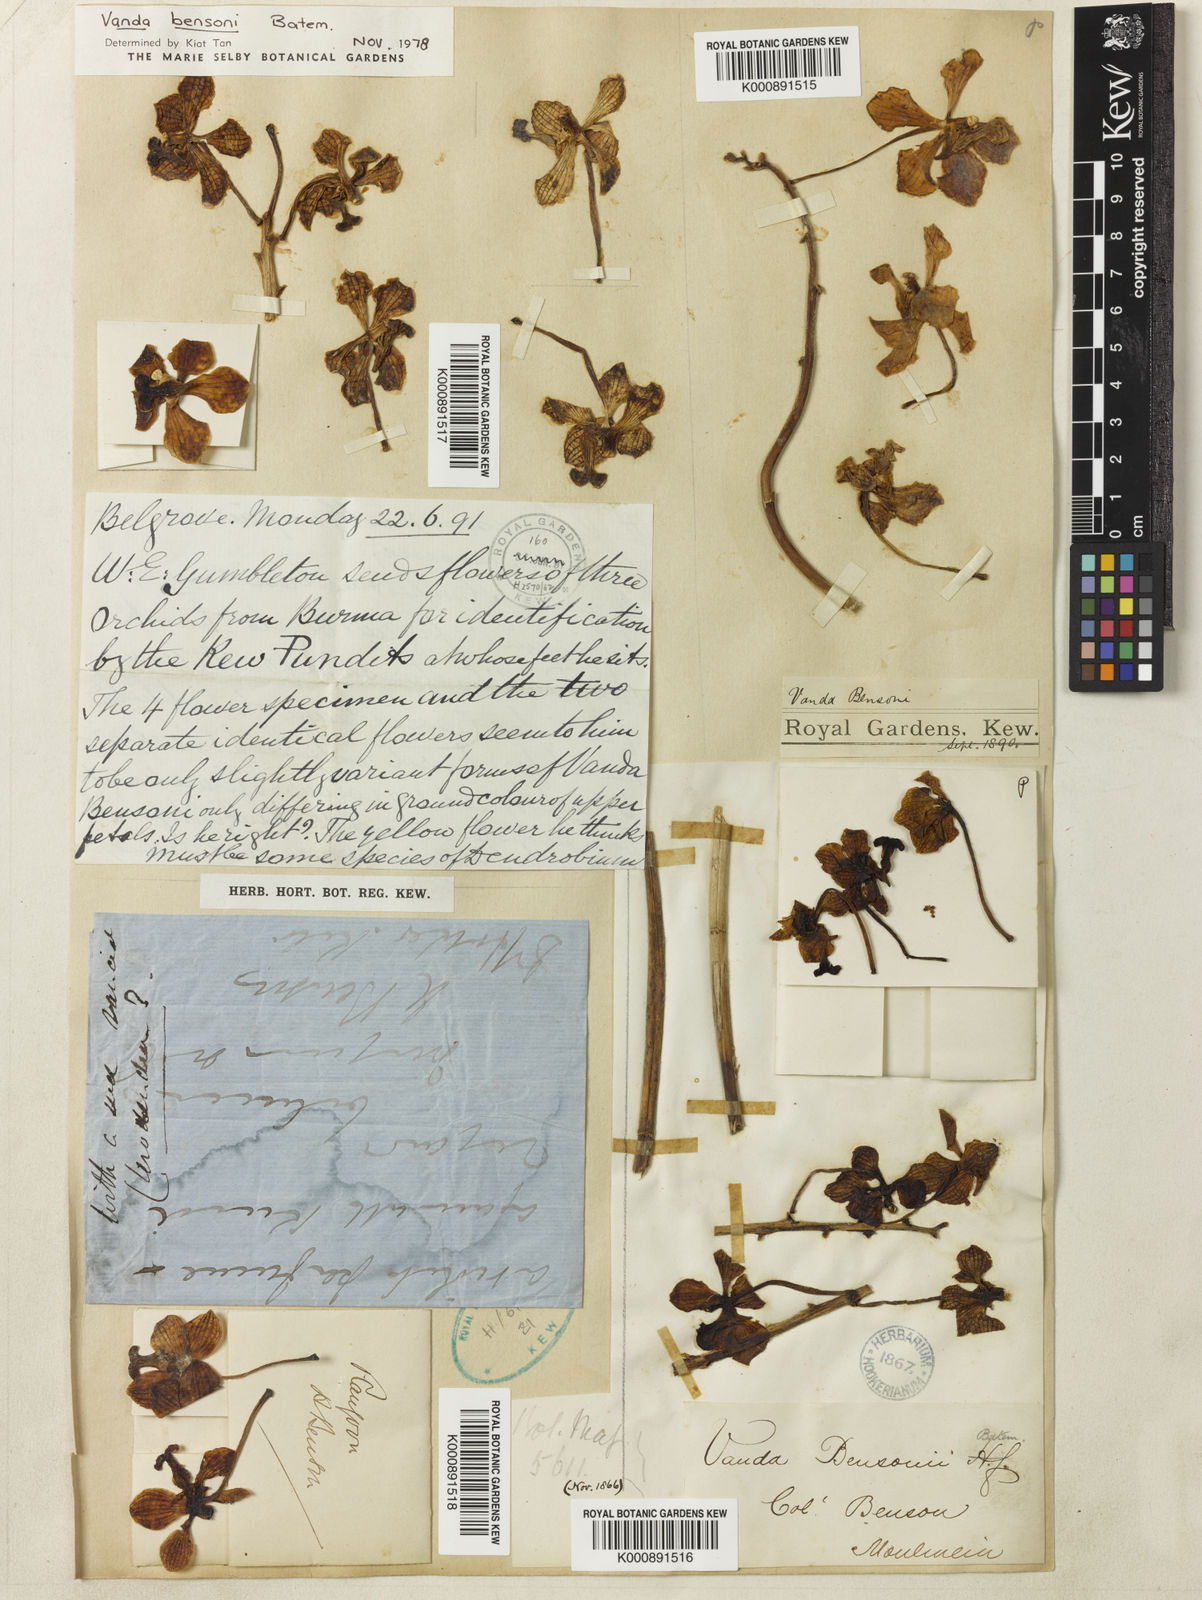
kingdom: Plantae
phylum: Tracheophyta
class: Liliopsida
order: Asparagales
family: Orchidaceae
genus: Vanda
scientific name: Vanda bensonii
